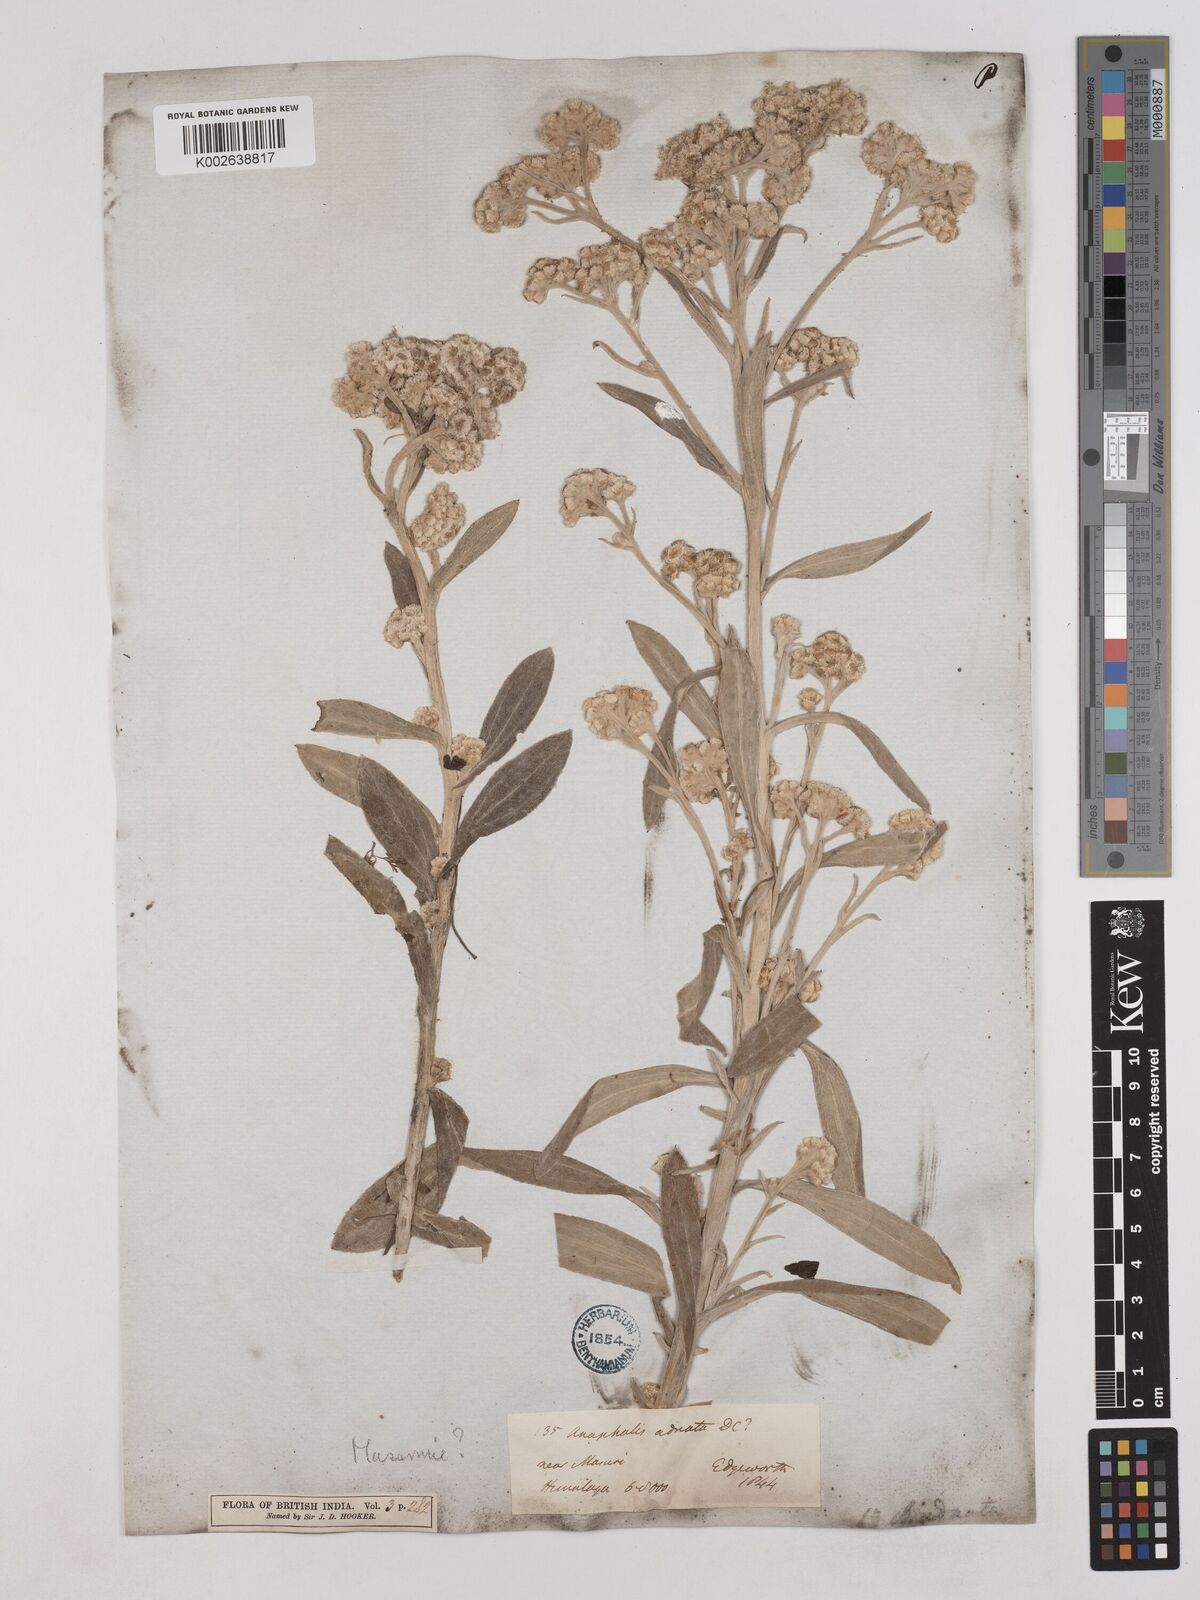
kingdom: Plantae
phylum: Tracheophyta
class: Magnoliopsida
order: Asterales
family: Asteraceae
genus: Pseudognaphalium
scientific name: Pseudognaphalium adnatum
